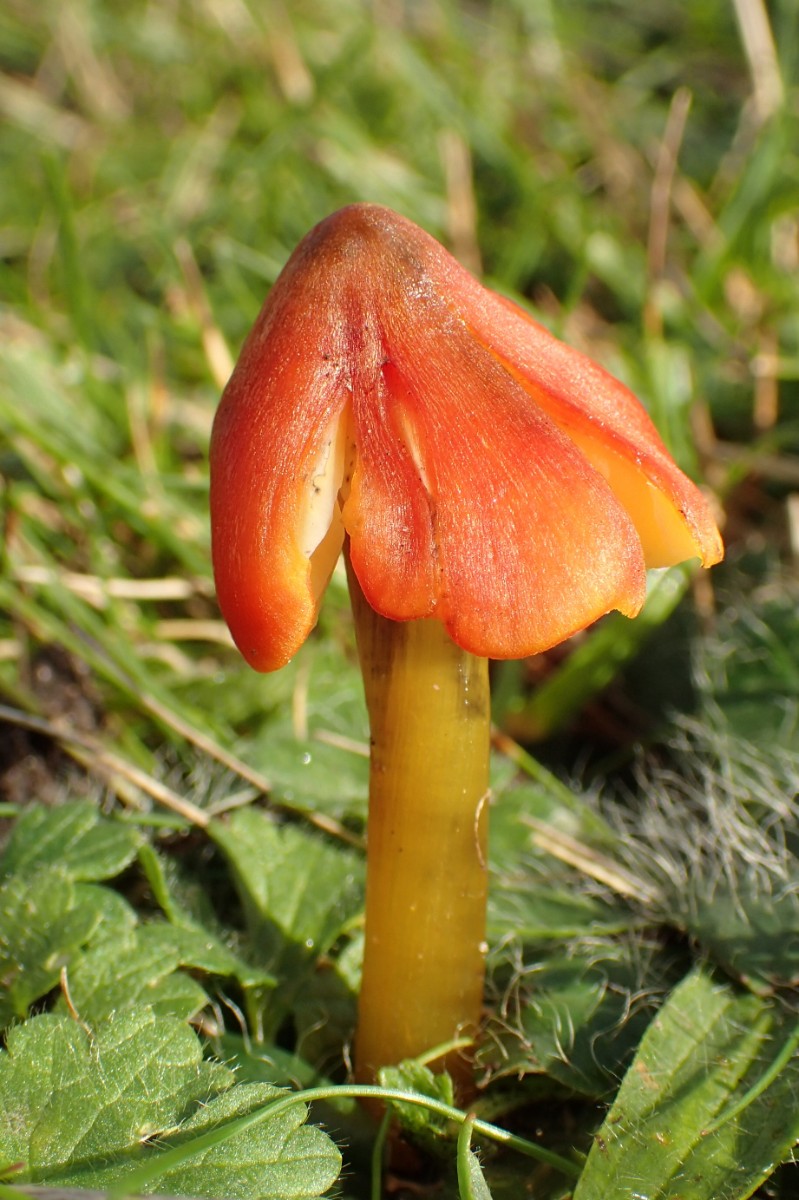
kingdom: Fungi
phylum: Basidiomycota
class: Agaricomycetes
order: Agaricales
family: Hygrophoraceae
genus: Hygrocybe
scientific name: Hygrocybe conica
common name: kegle-vokshat
